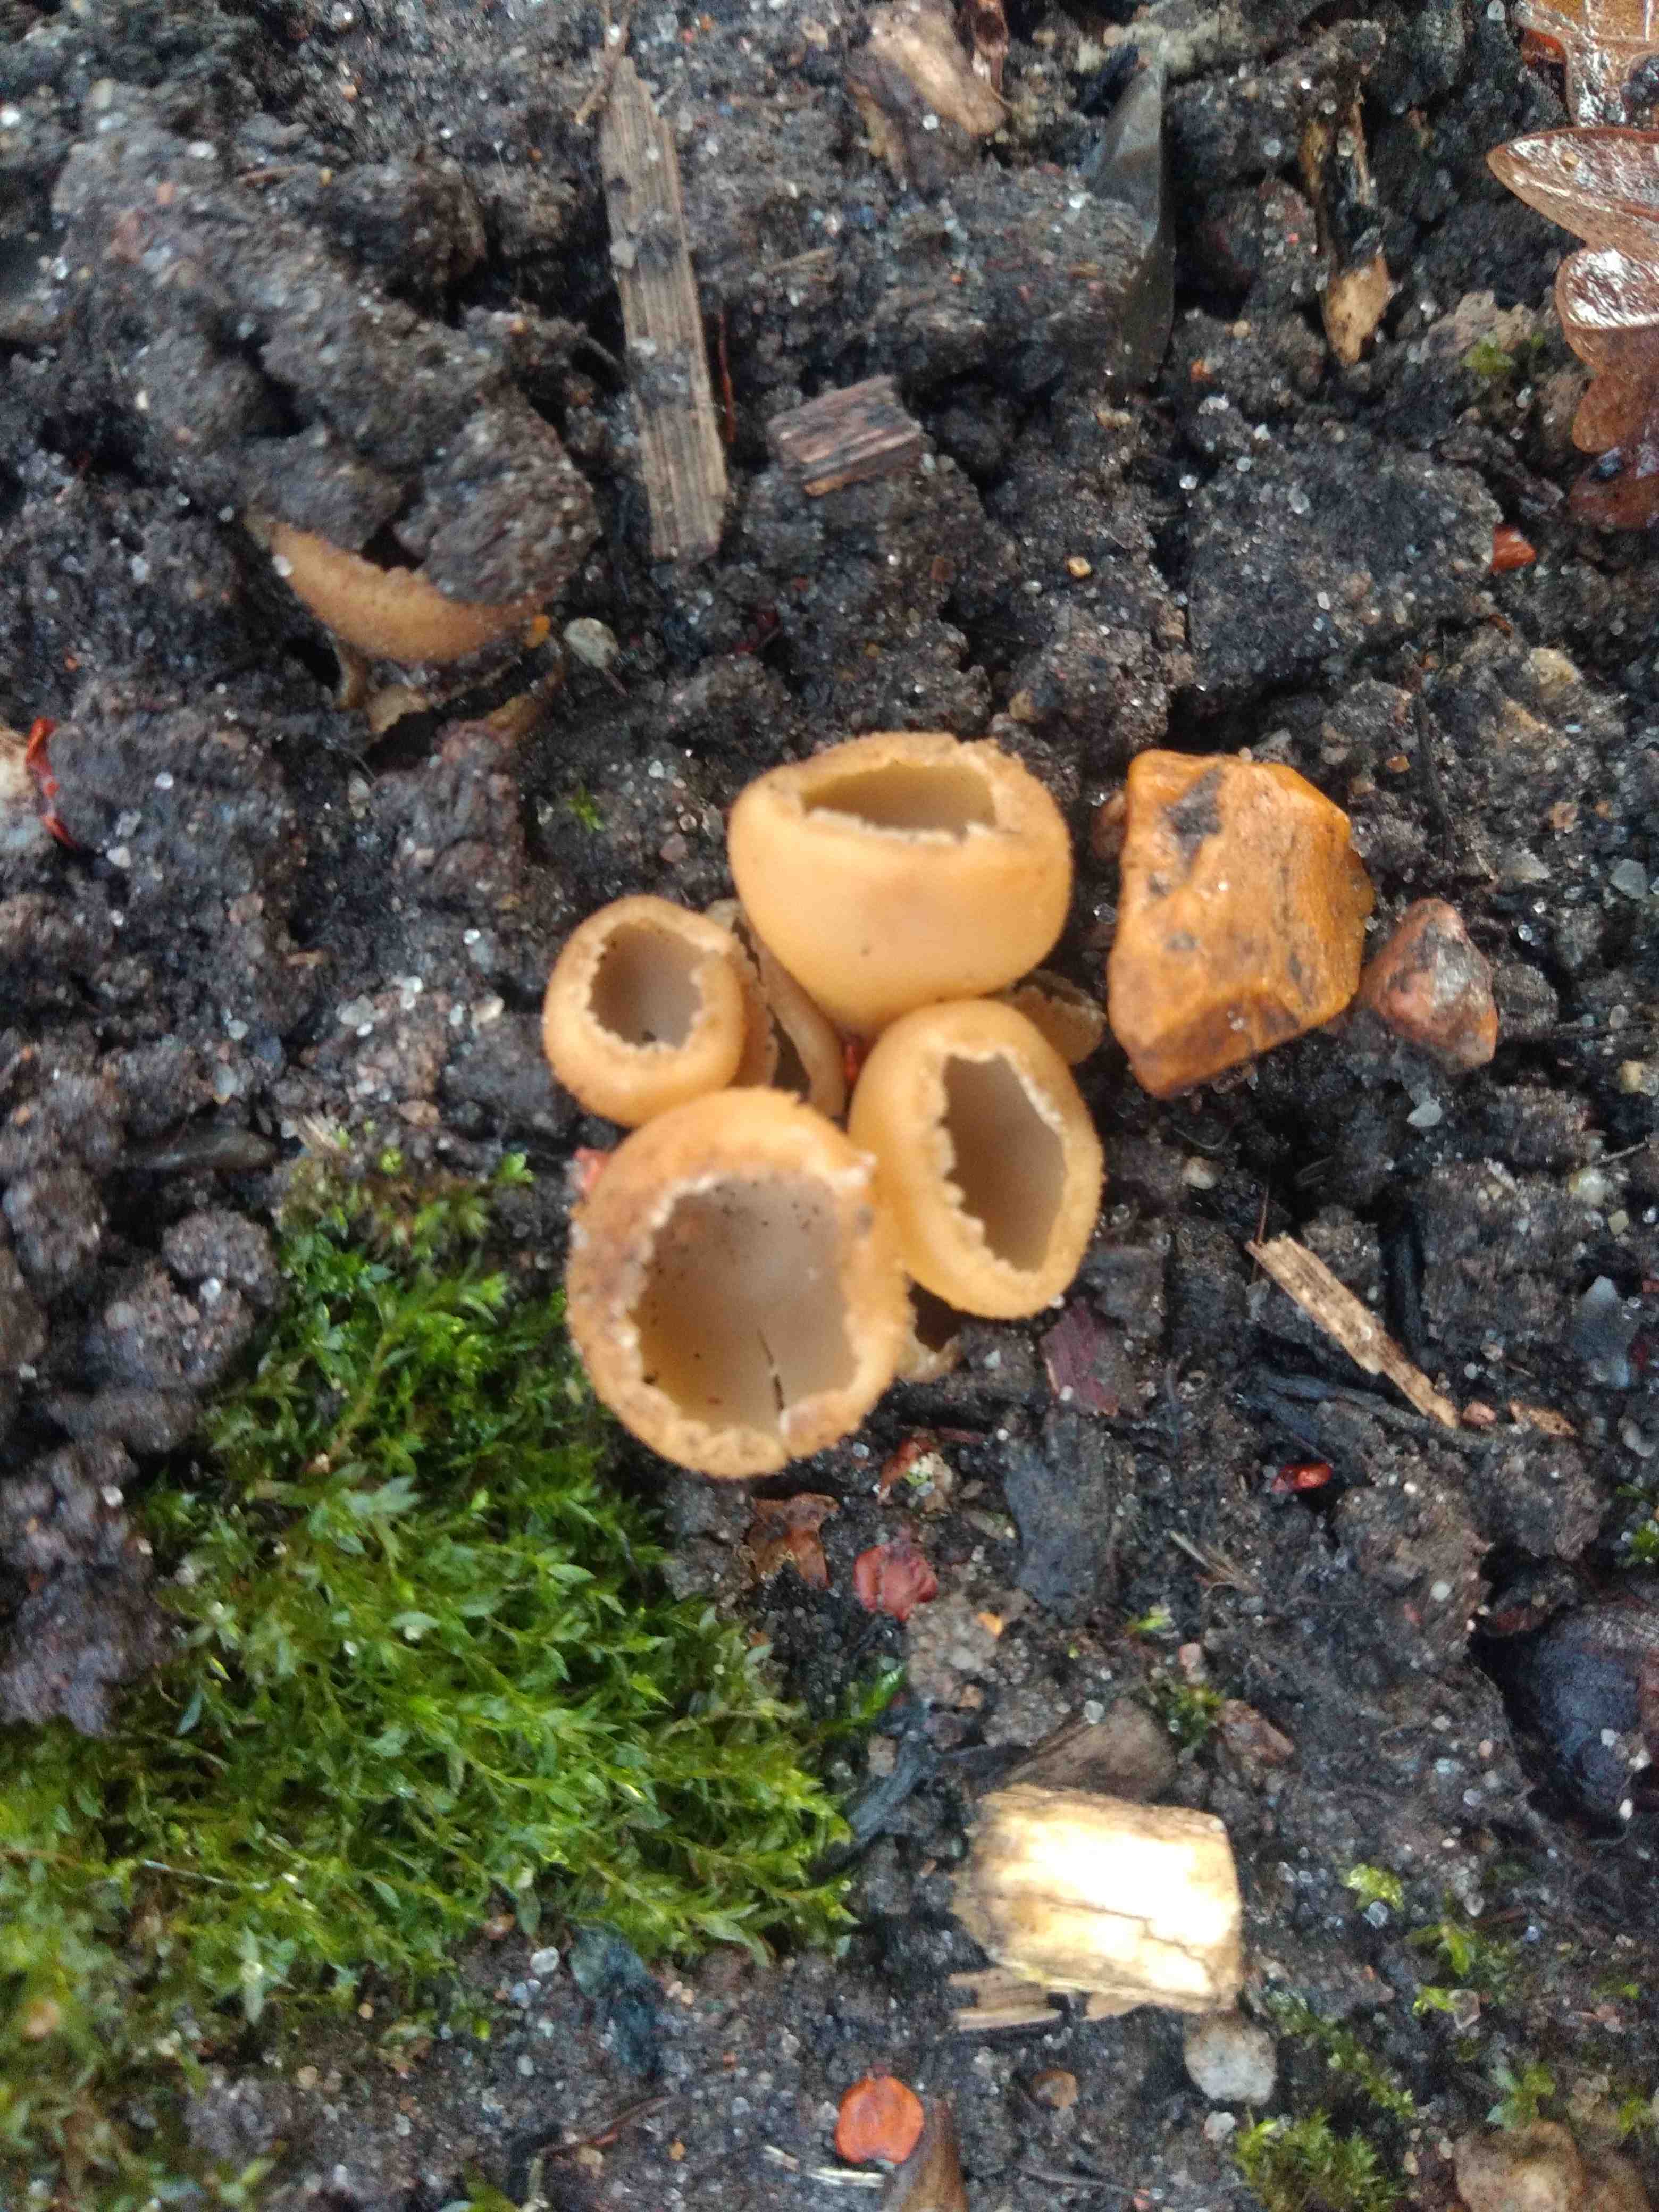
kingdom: Fungi
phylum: Ascomycota
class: Pezizomycetes
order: Pezizales
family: Pyronemataceae
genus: Tarzetta
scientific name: Tarzetta cupularis
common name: gulbrun pokalbæger
